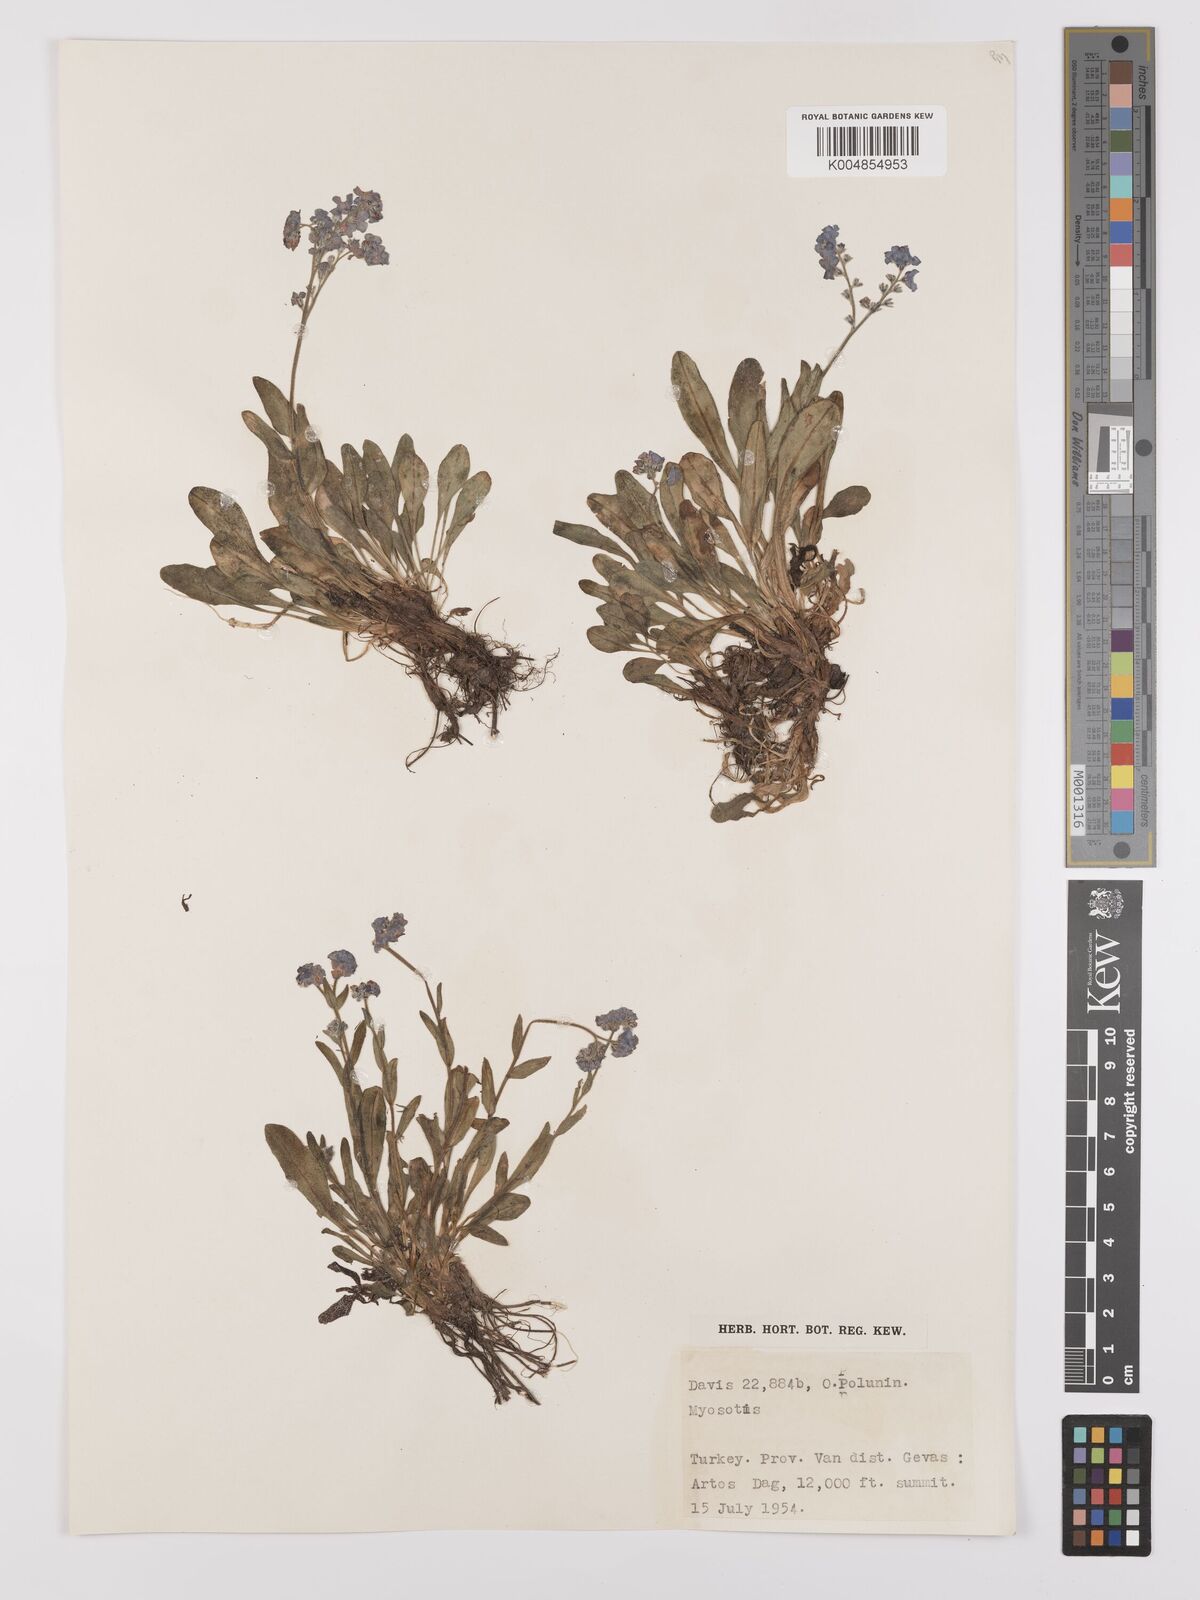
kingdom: Plantae
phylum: Tracheophyta
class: Magnoliopsida
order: Boraginales
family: Boraginaceae
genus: Myosotis
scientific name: Myosotis
